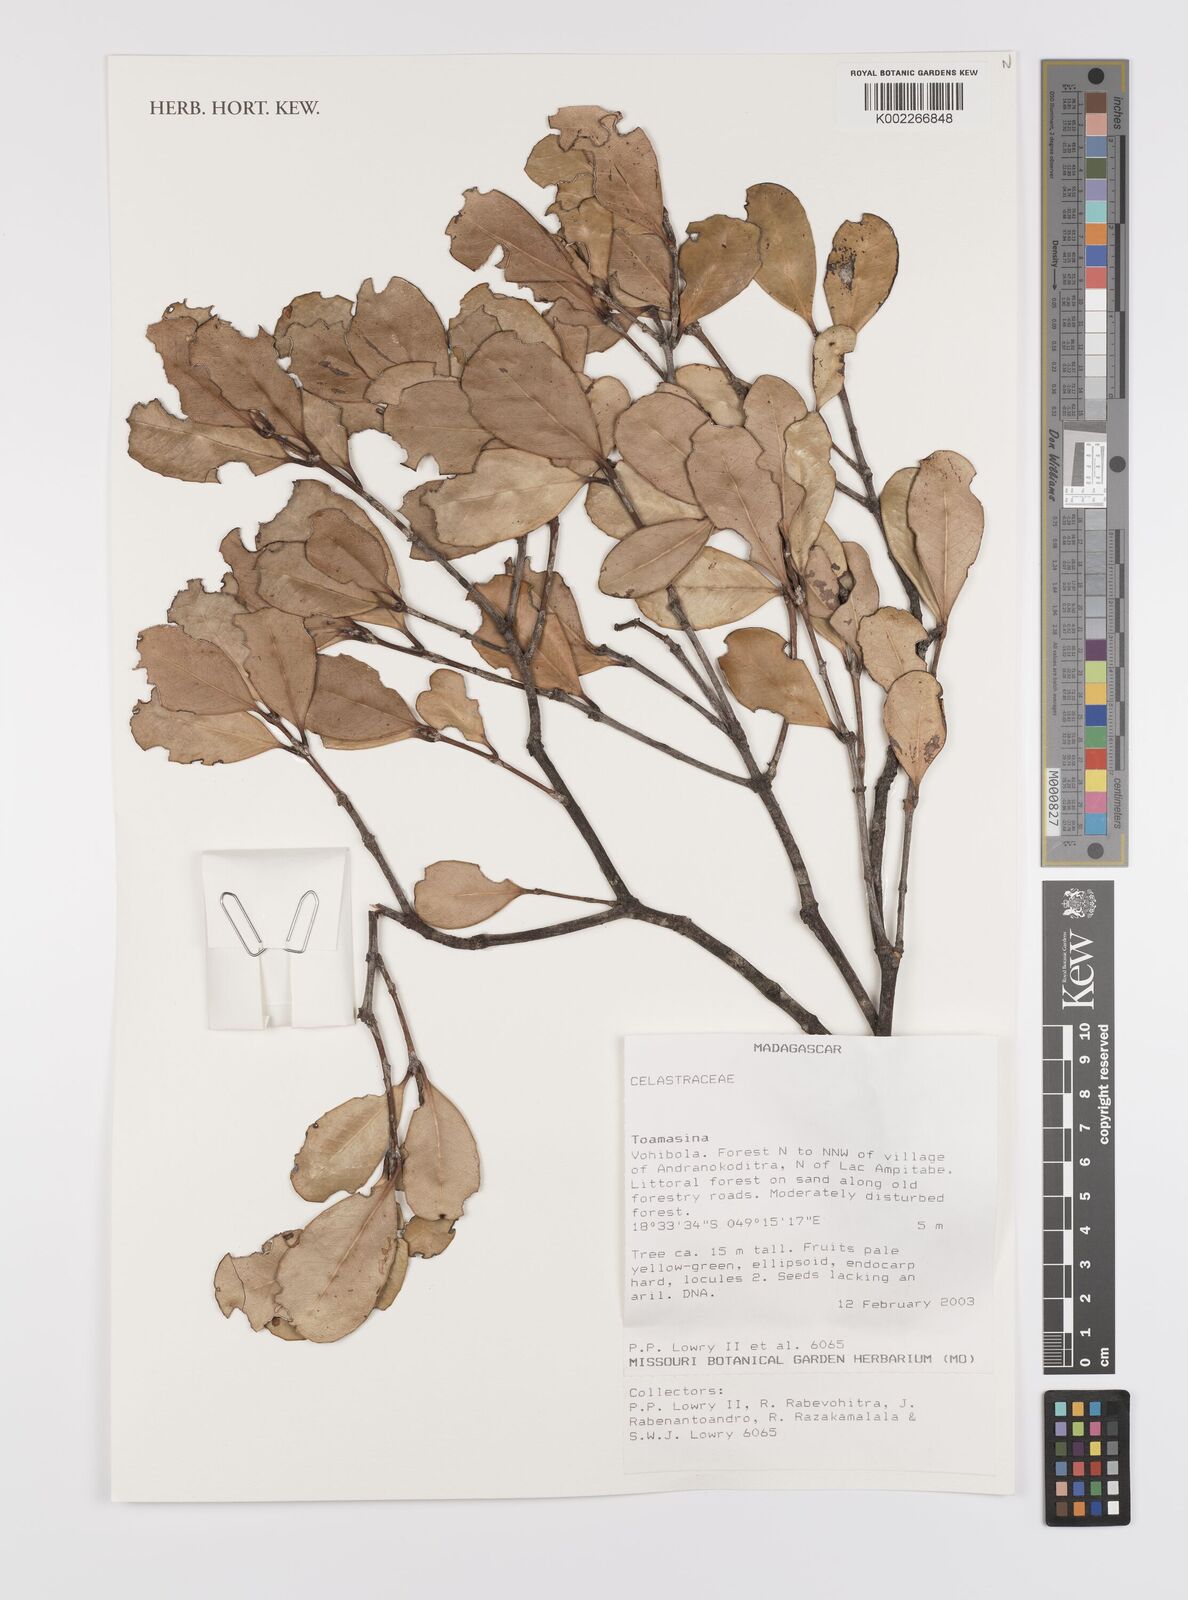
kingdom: Plantae
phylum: Tracheophyta
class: Magnoliopsida
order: Celastrales
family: Celastraceae
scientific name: Celastraceae
